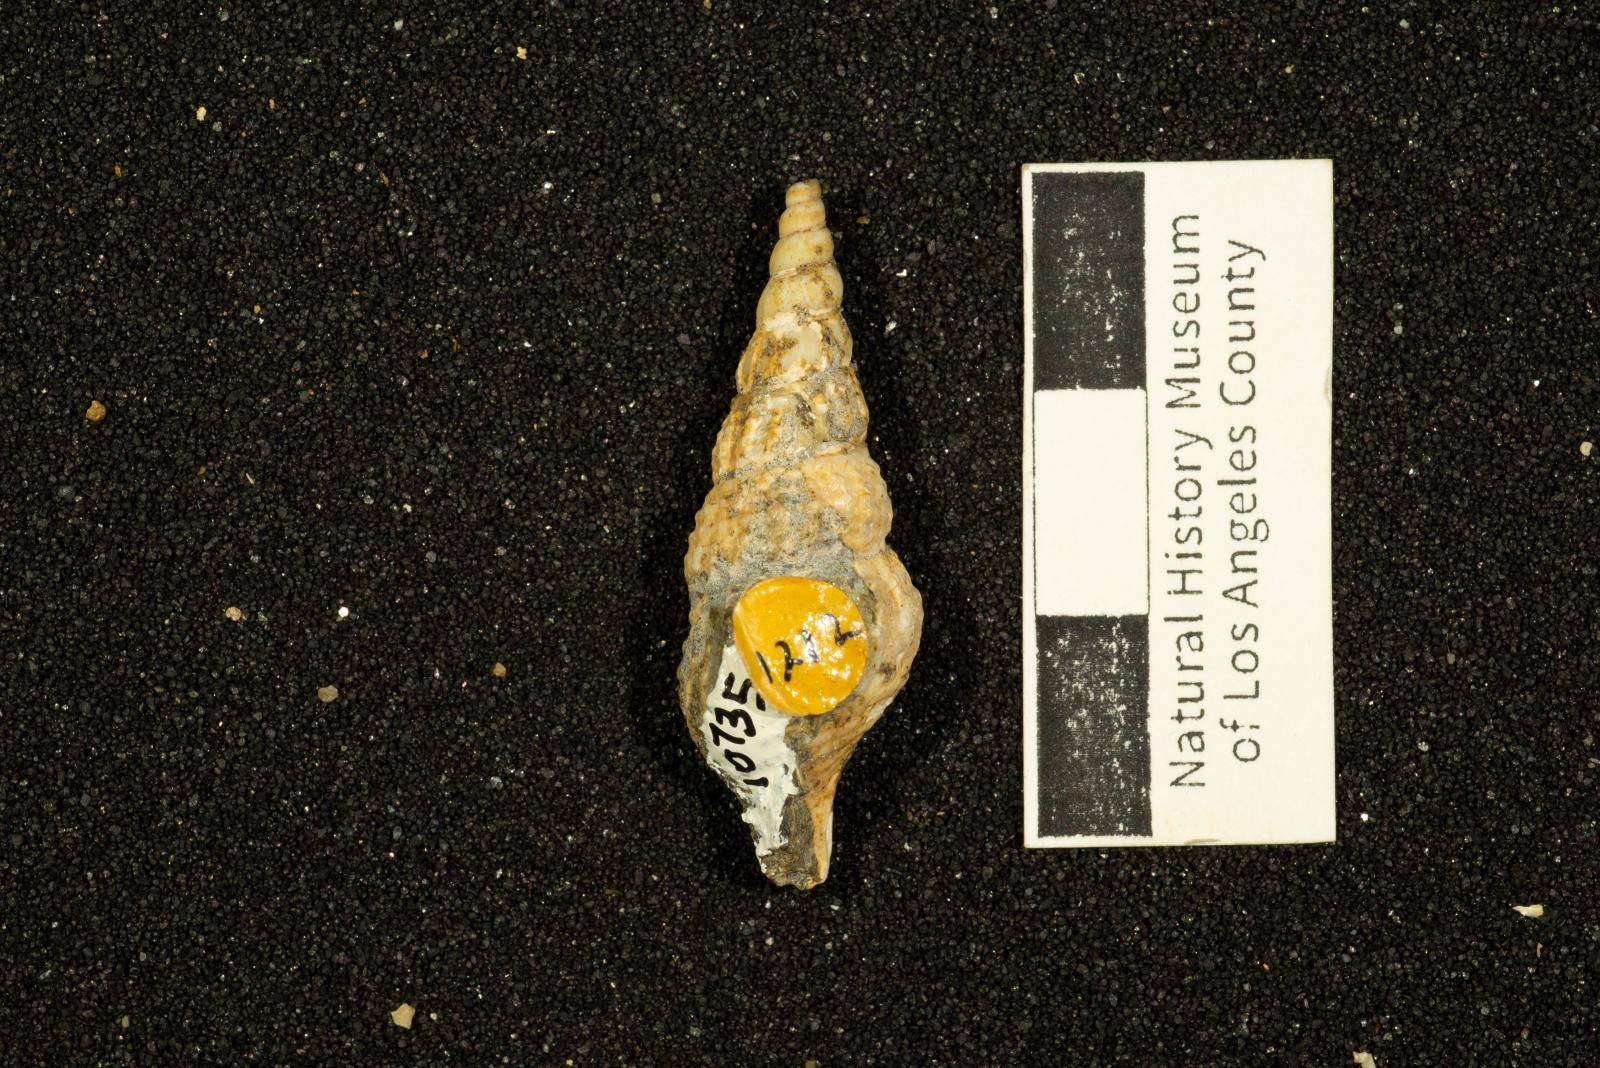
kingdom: Animalia
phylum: Mollusca
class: Gastropoda
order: Littorinimorpha
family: Aporrhaidae
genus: Helicaulax
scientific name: Helicaulax condoniana
